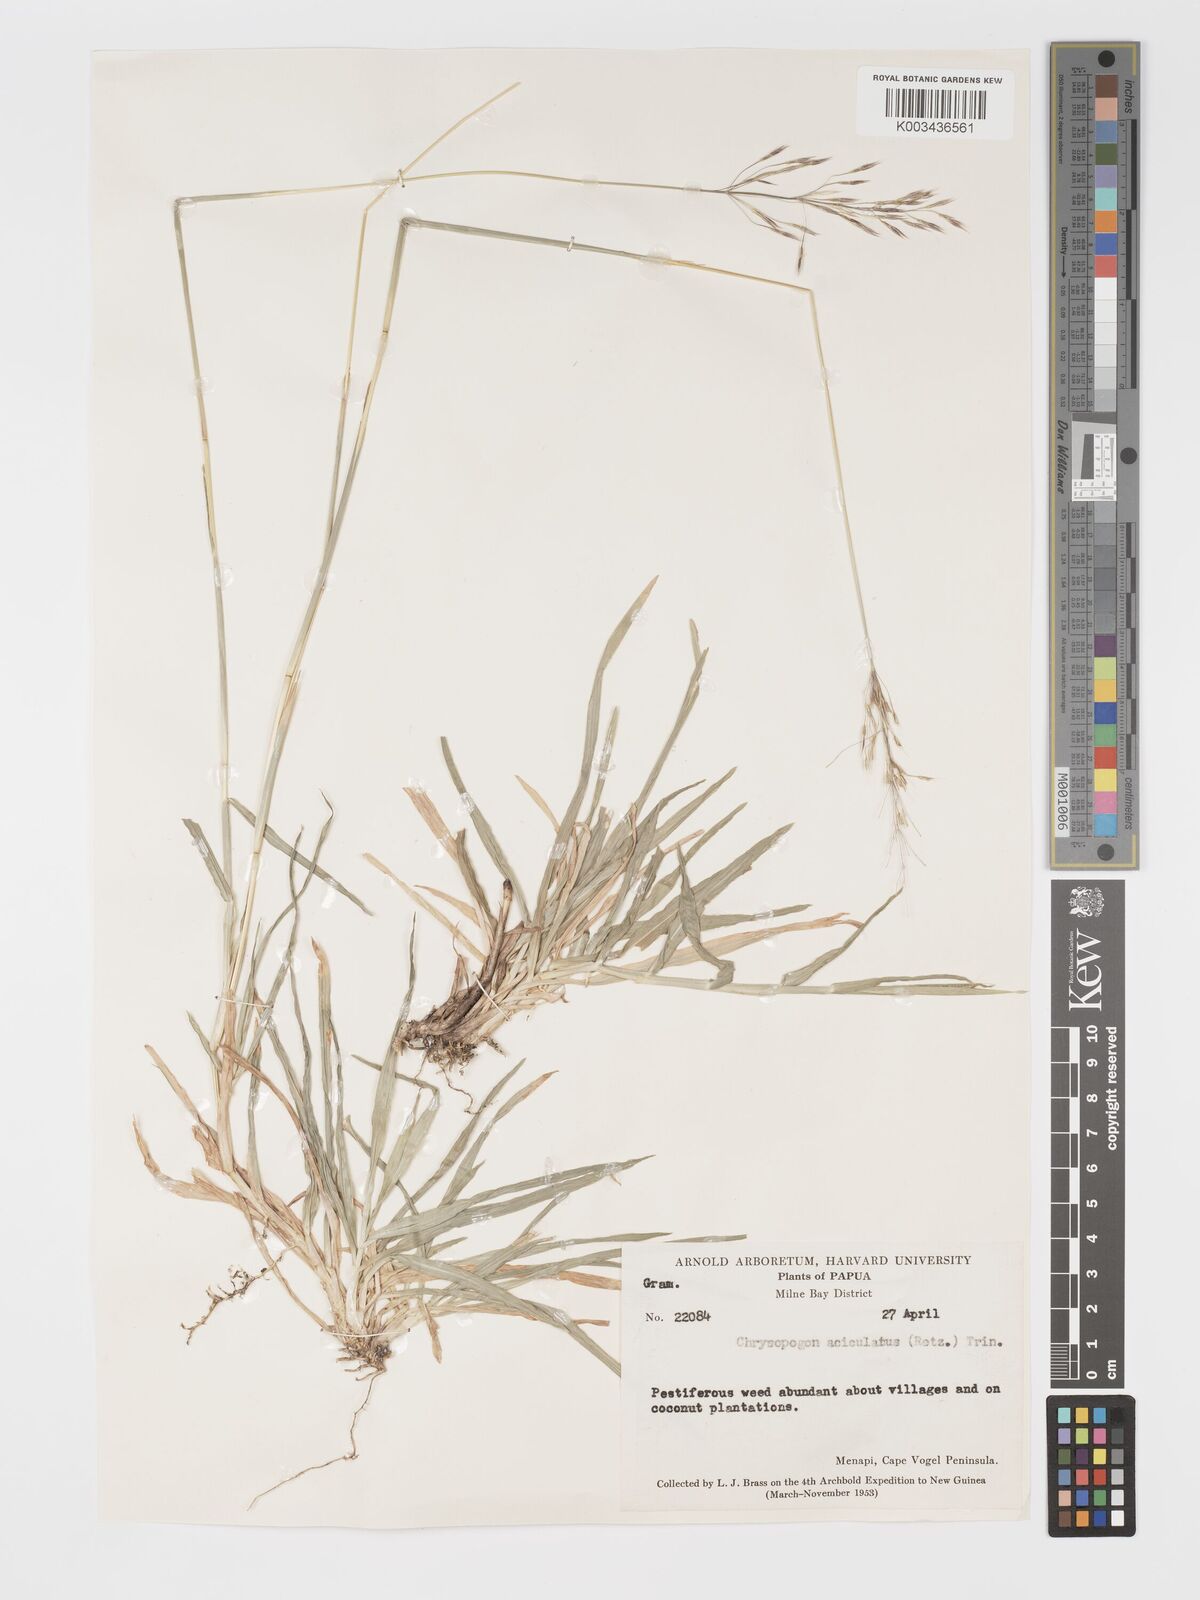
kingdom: Plantae
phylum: Tracheophyta
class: Liliopsida
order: Poales
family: Poaceae
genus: Chrysopogon
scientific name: Chrysopogon aciculatus
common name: Pilipiliula
